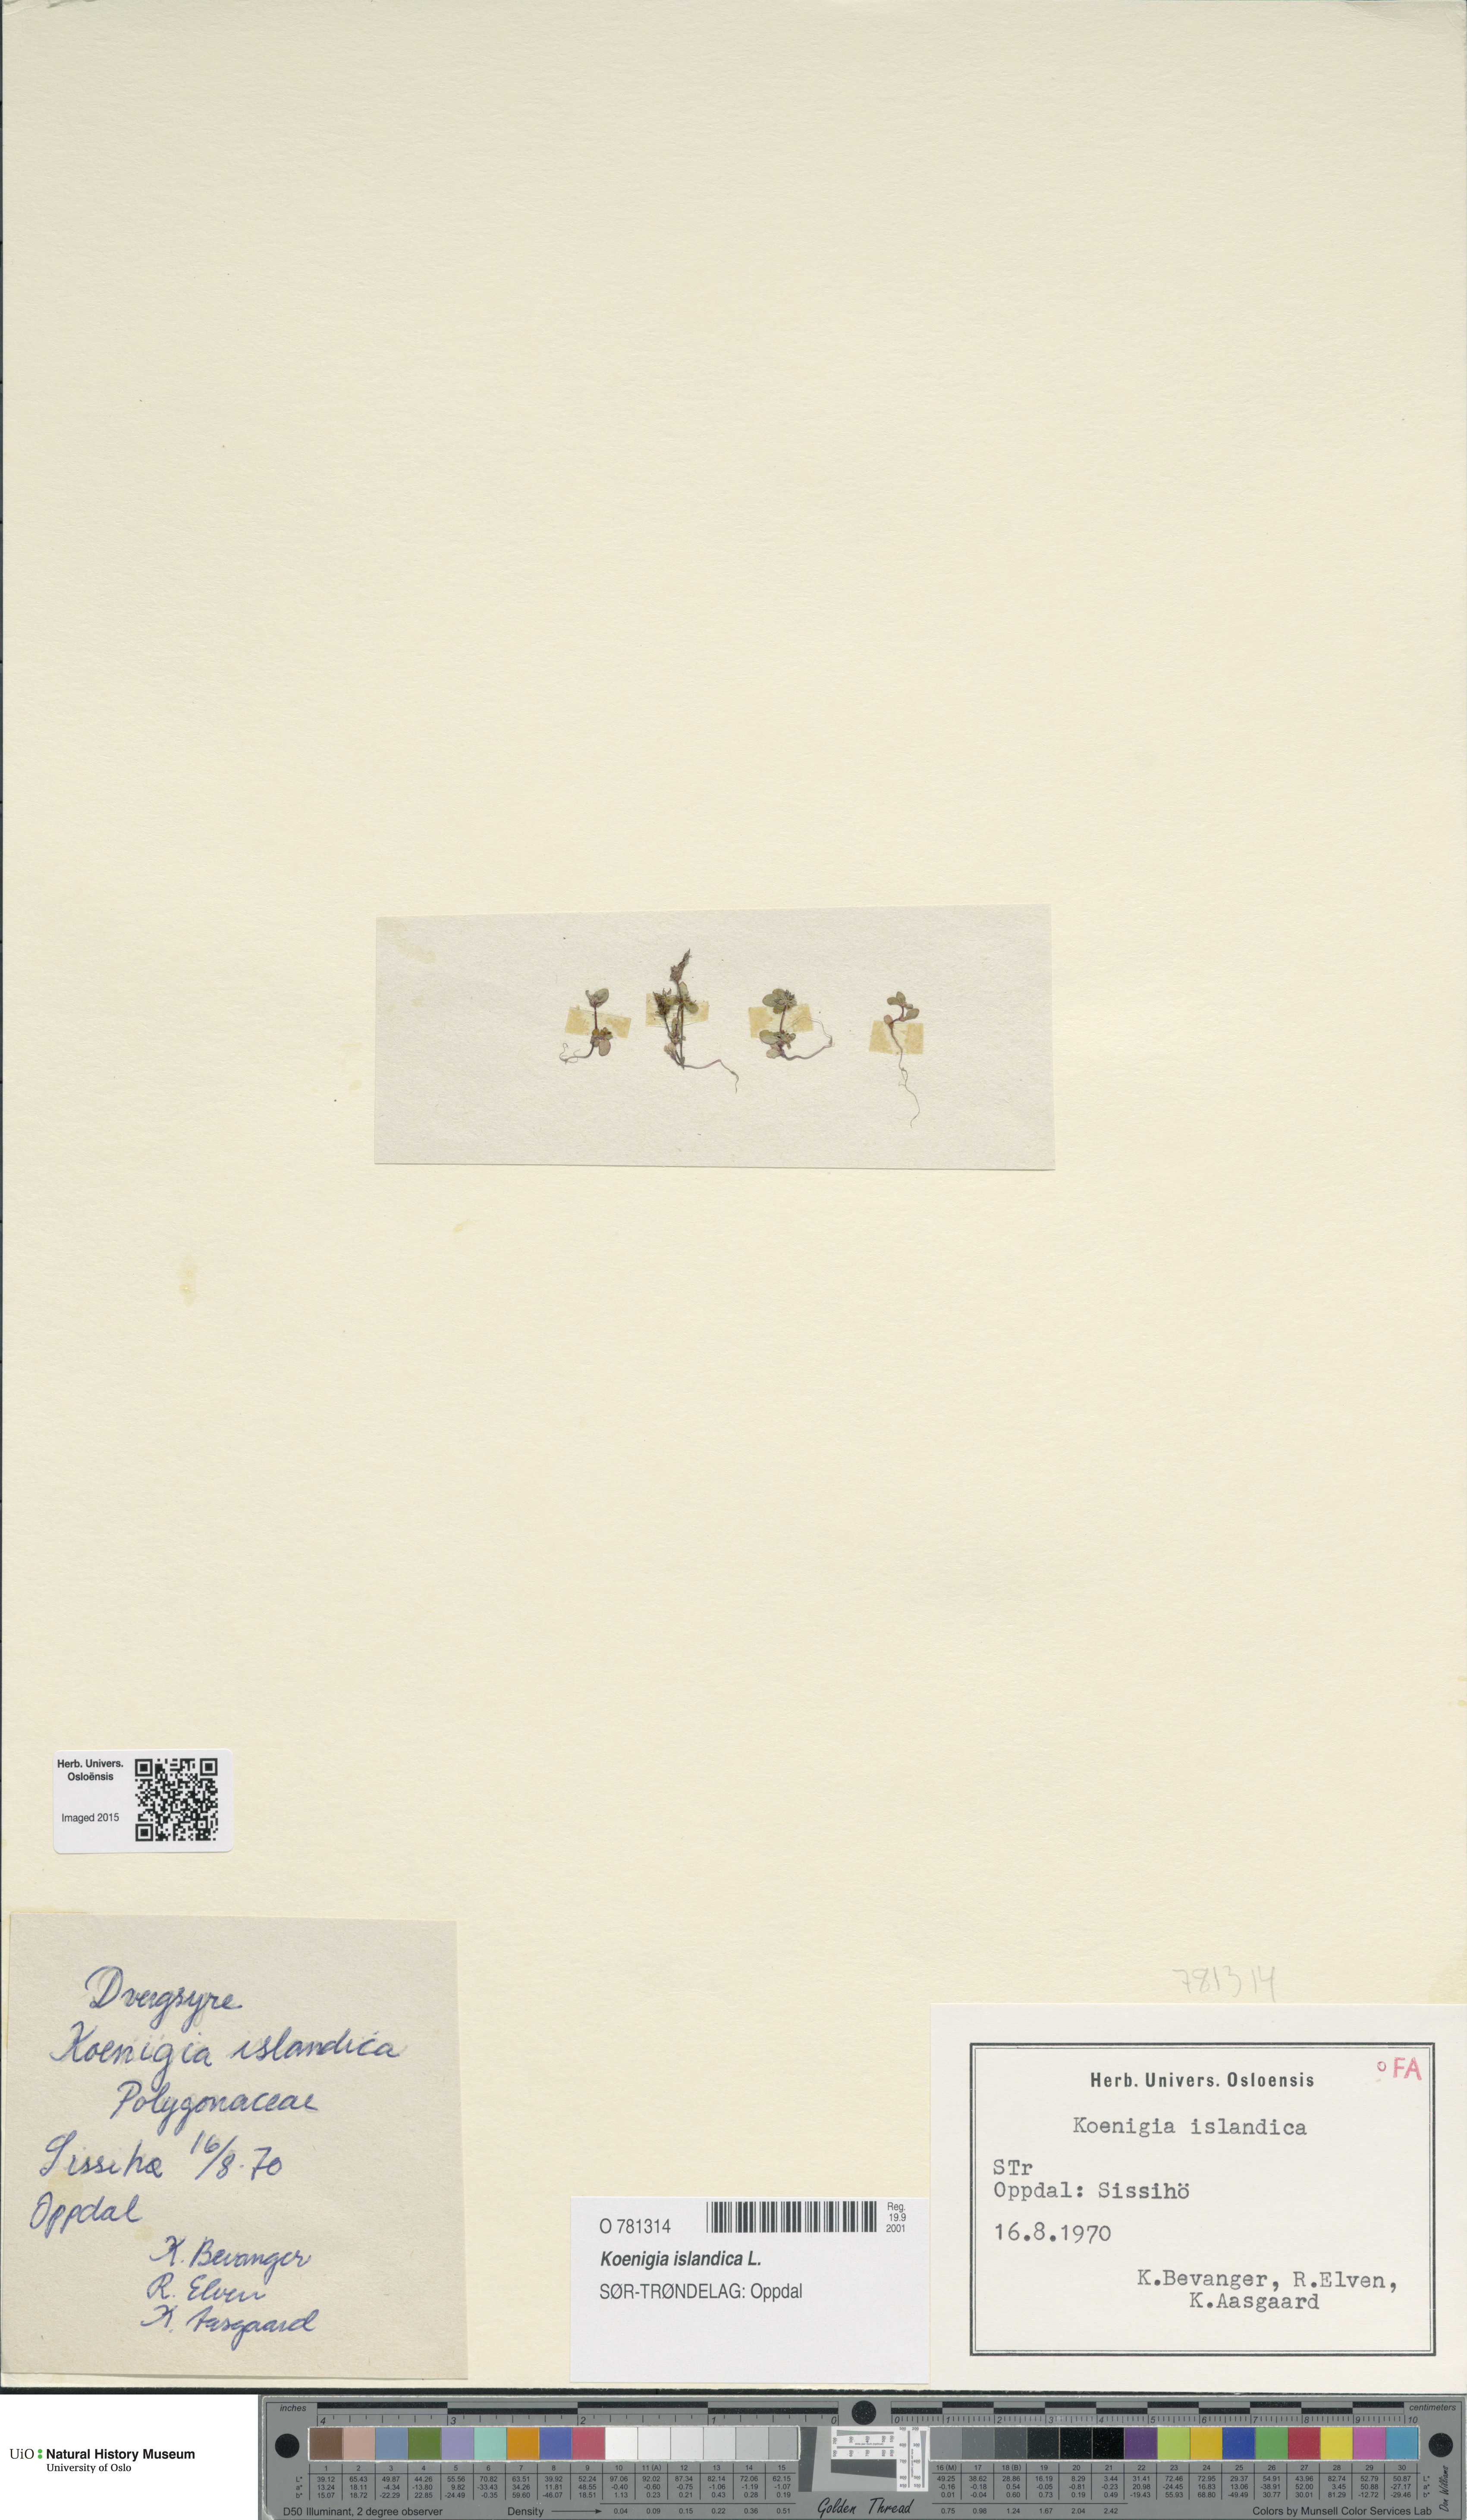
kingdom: Plantae
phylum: Tracheophyta
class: Magnoliopsida
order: Caryophyllales
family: Polygonaceae
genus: Koenigia
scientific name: Koenigia islandica
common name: Iceland-purslane
